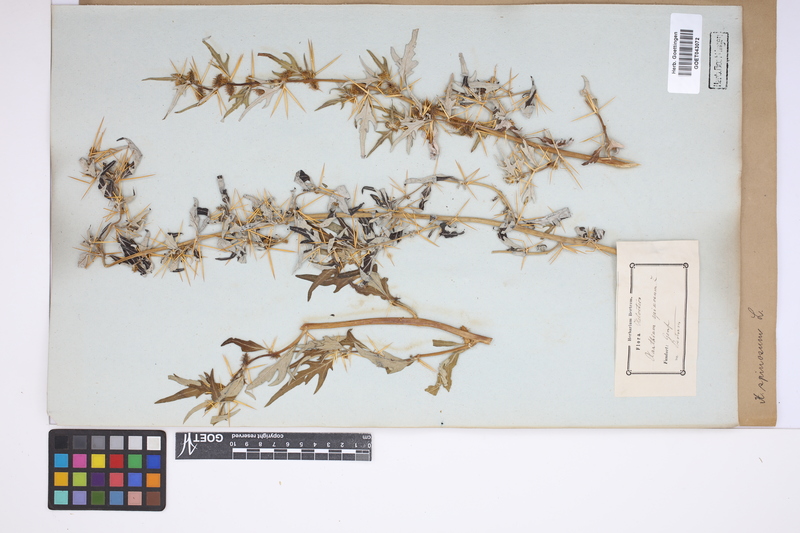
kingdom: Plantae
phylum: Tracheophyta
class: Magnoliopsida
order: Asterales
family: Asteraceae
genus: Xanthium
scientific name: Xanthium spinosum
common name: Spiny cocklebur
